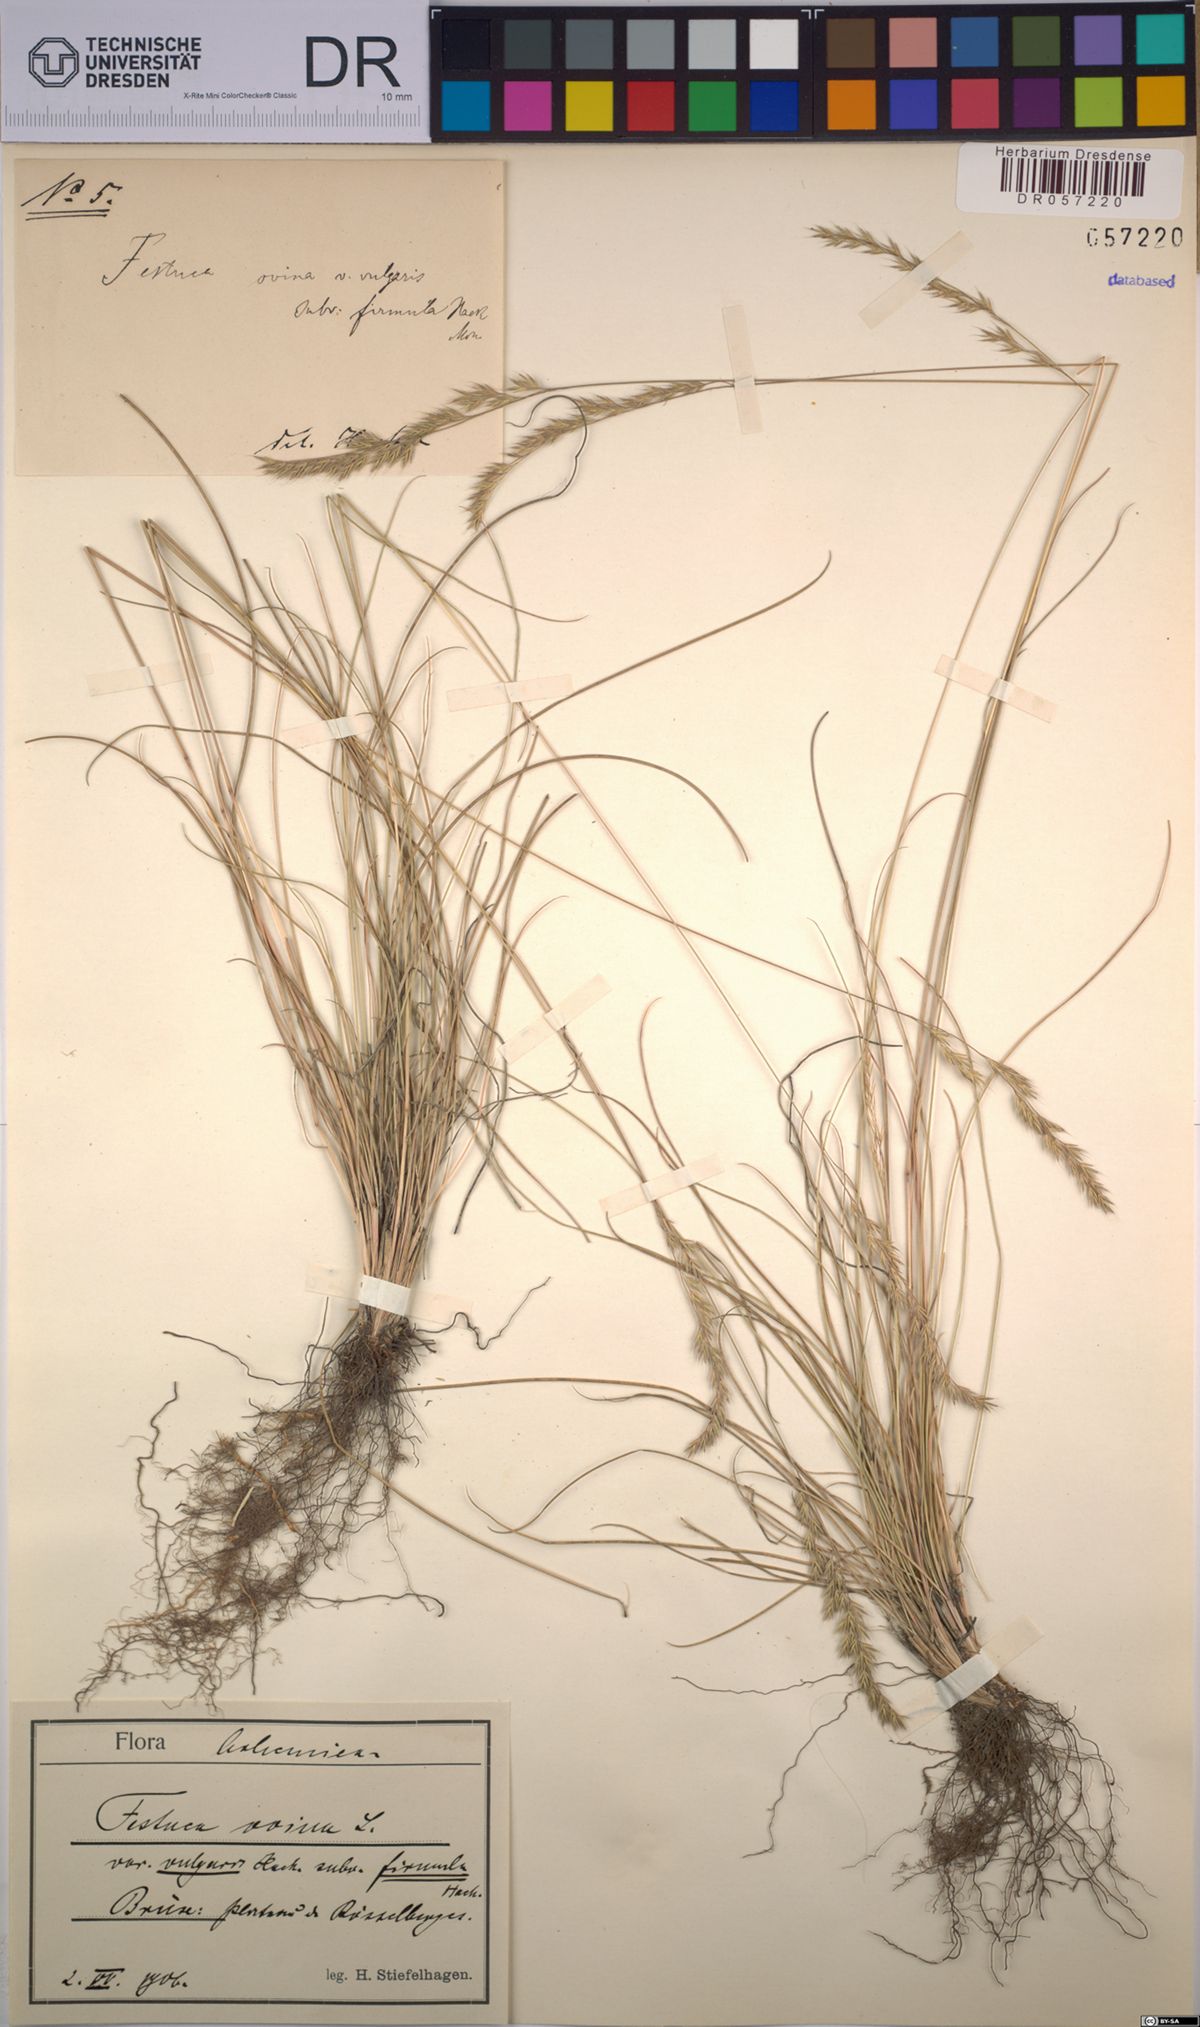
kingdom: Plantae
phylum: Tracheophyta
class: Liliopsida
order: Poales
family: Poaceae
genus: Festuca
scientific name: Festuca ovina
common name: Sheep fescue
